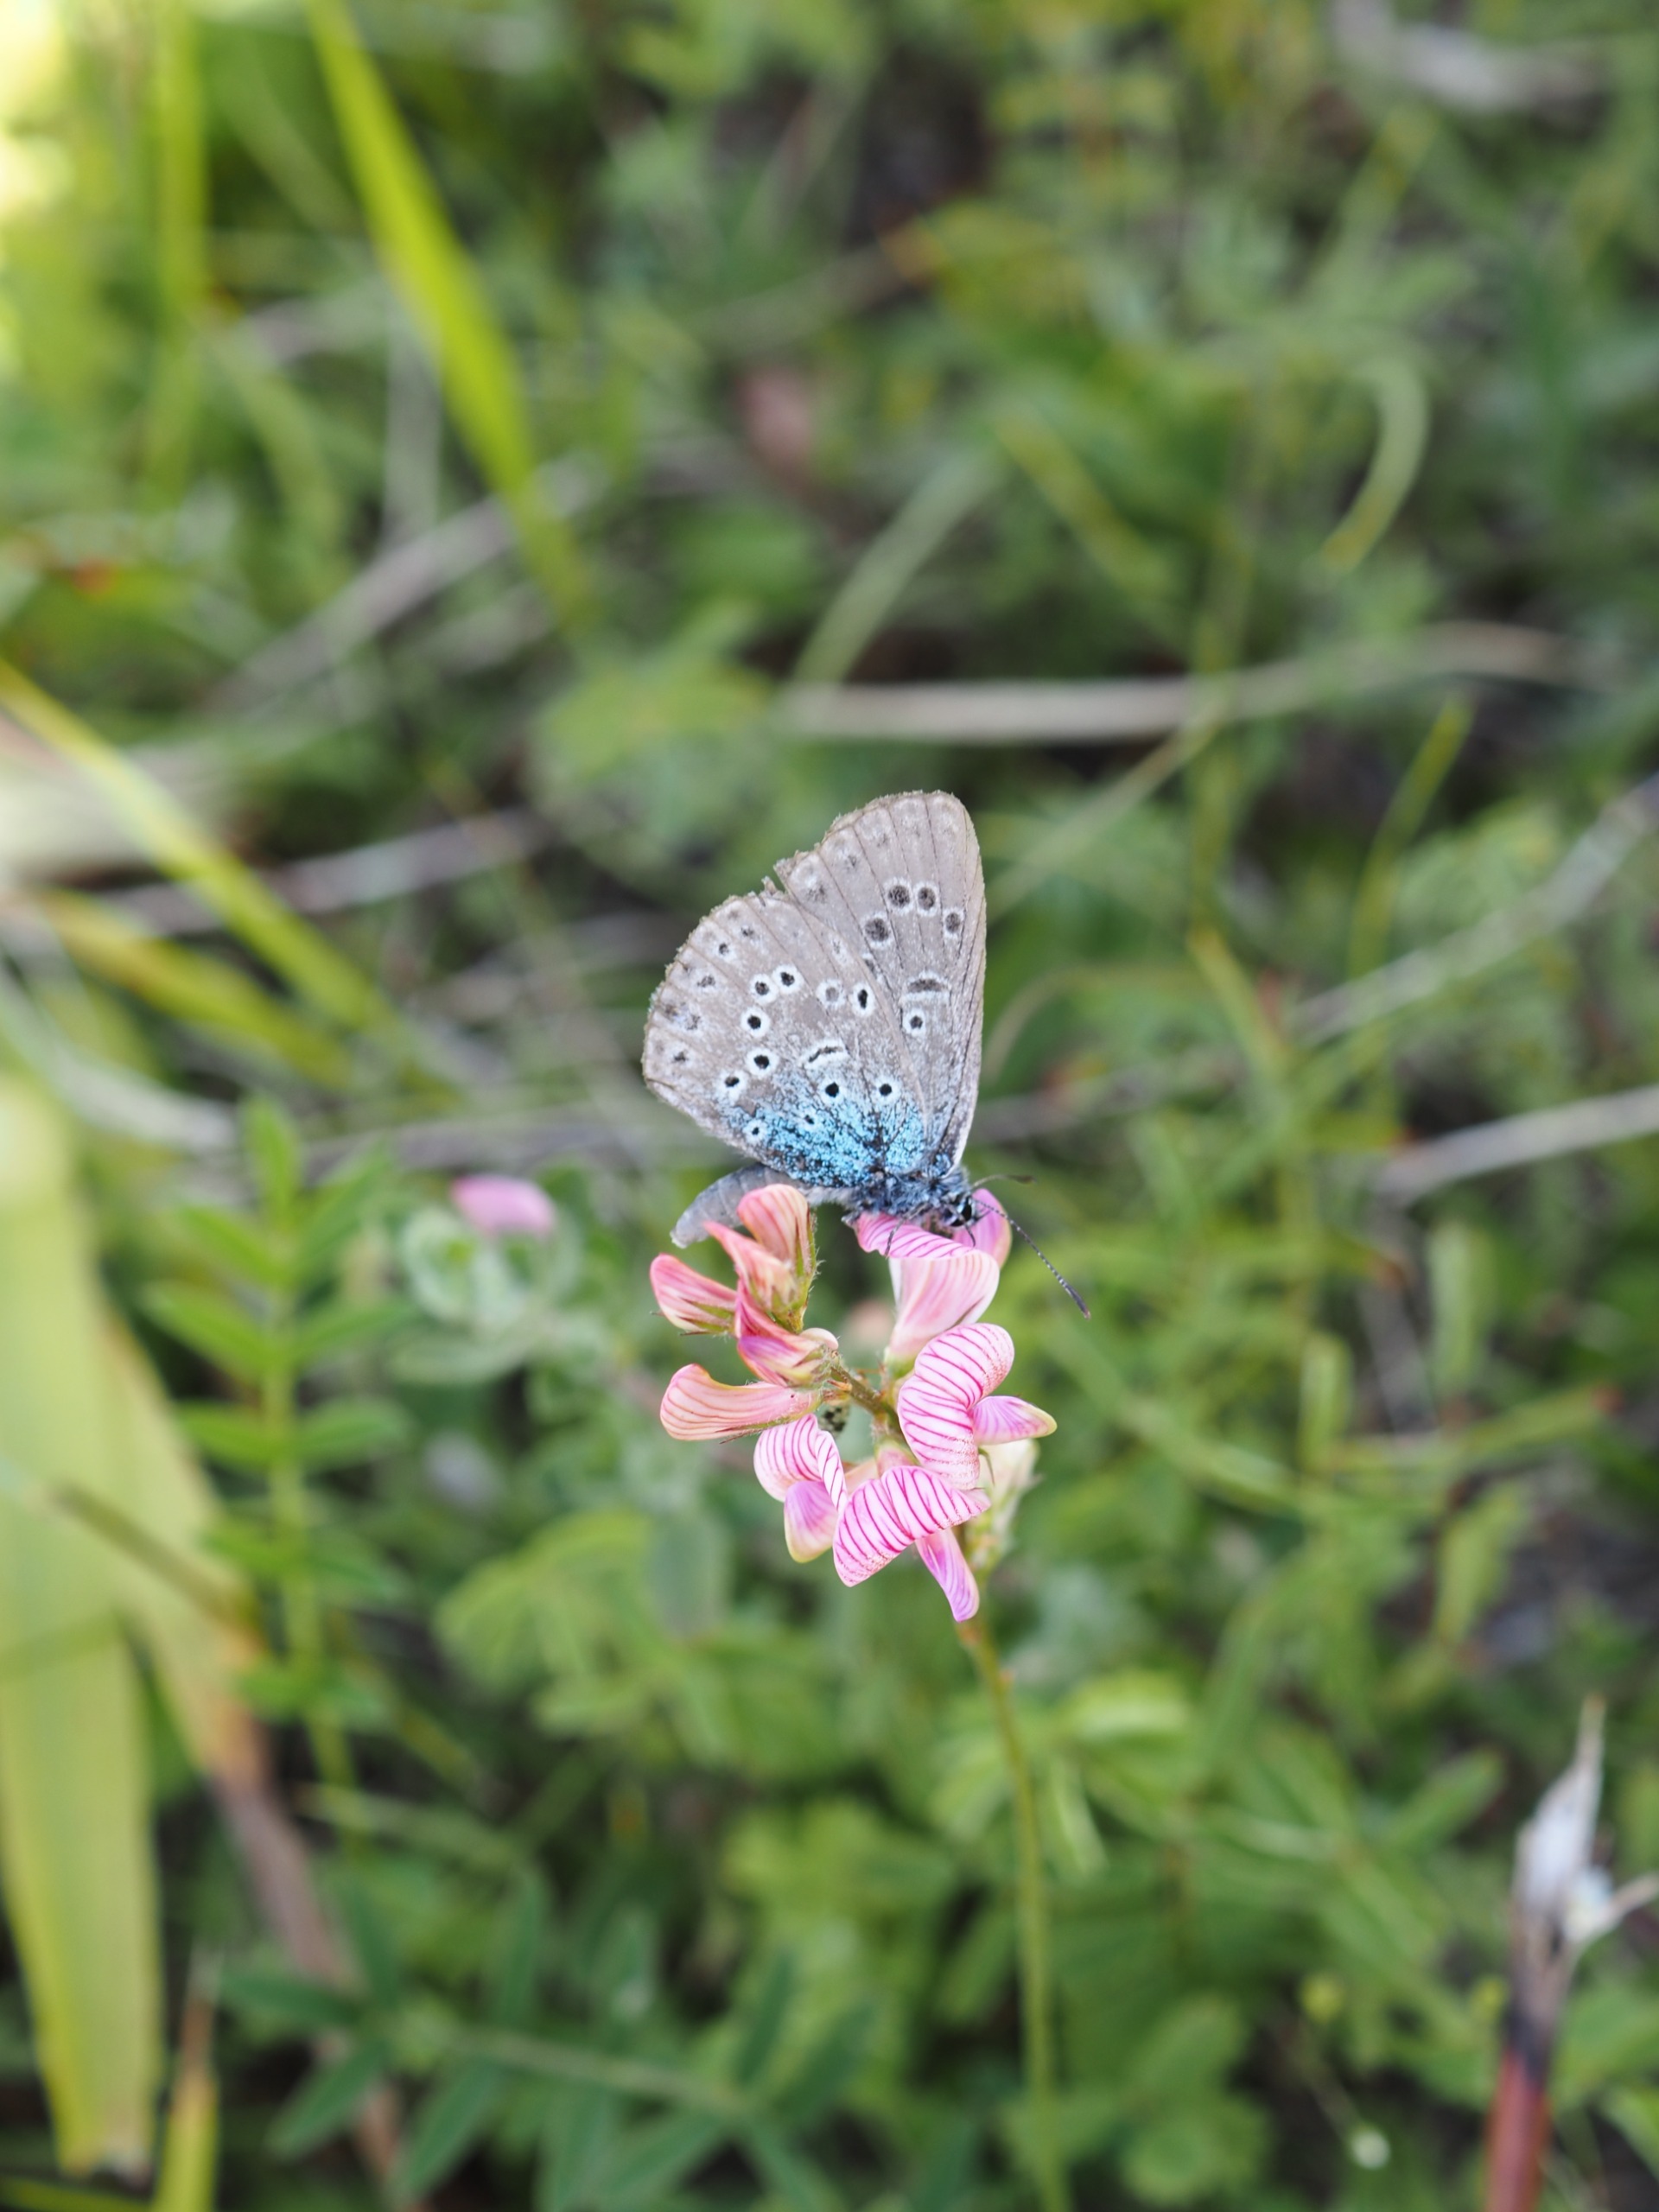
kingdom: Animalia
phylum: Arthropoda
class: Insecta
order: Lepidoptera
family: Lycaenidae
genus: Maculinea
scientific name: Maculinea arion
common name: Sortplettet blåfugl
